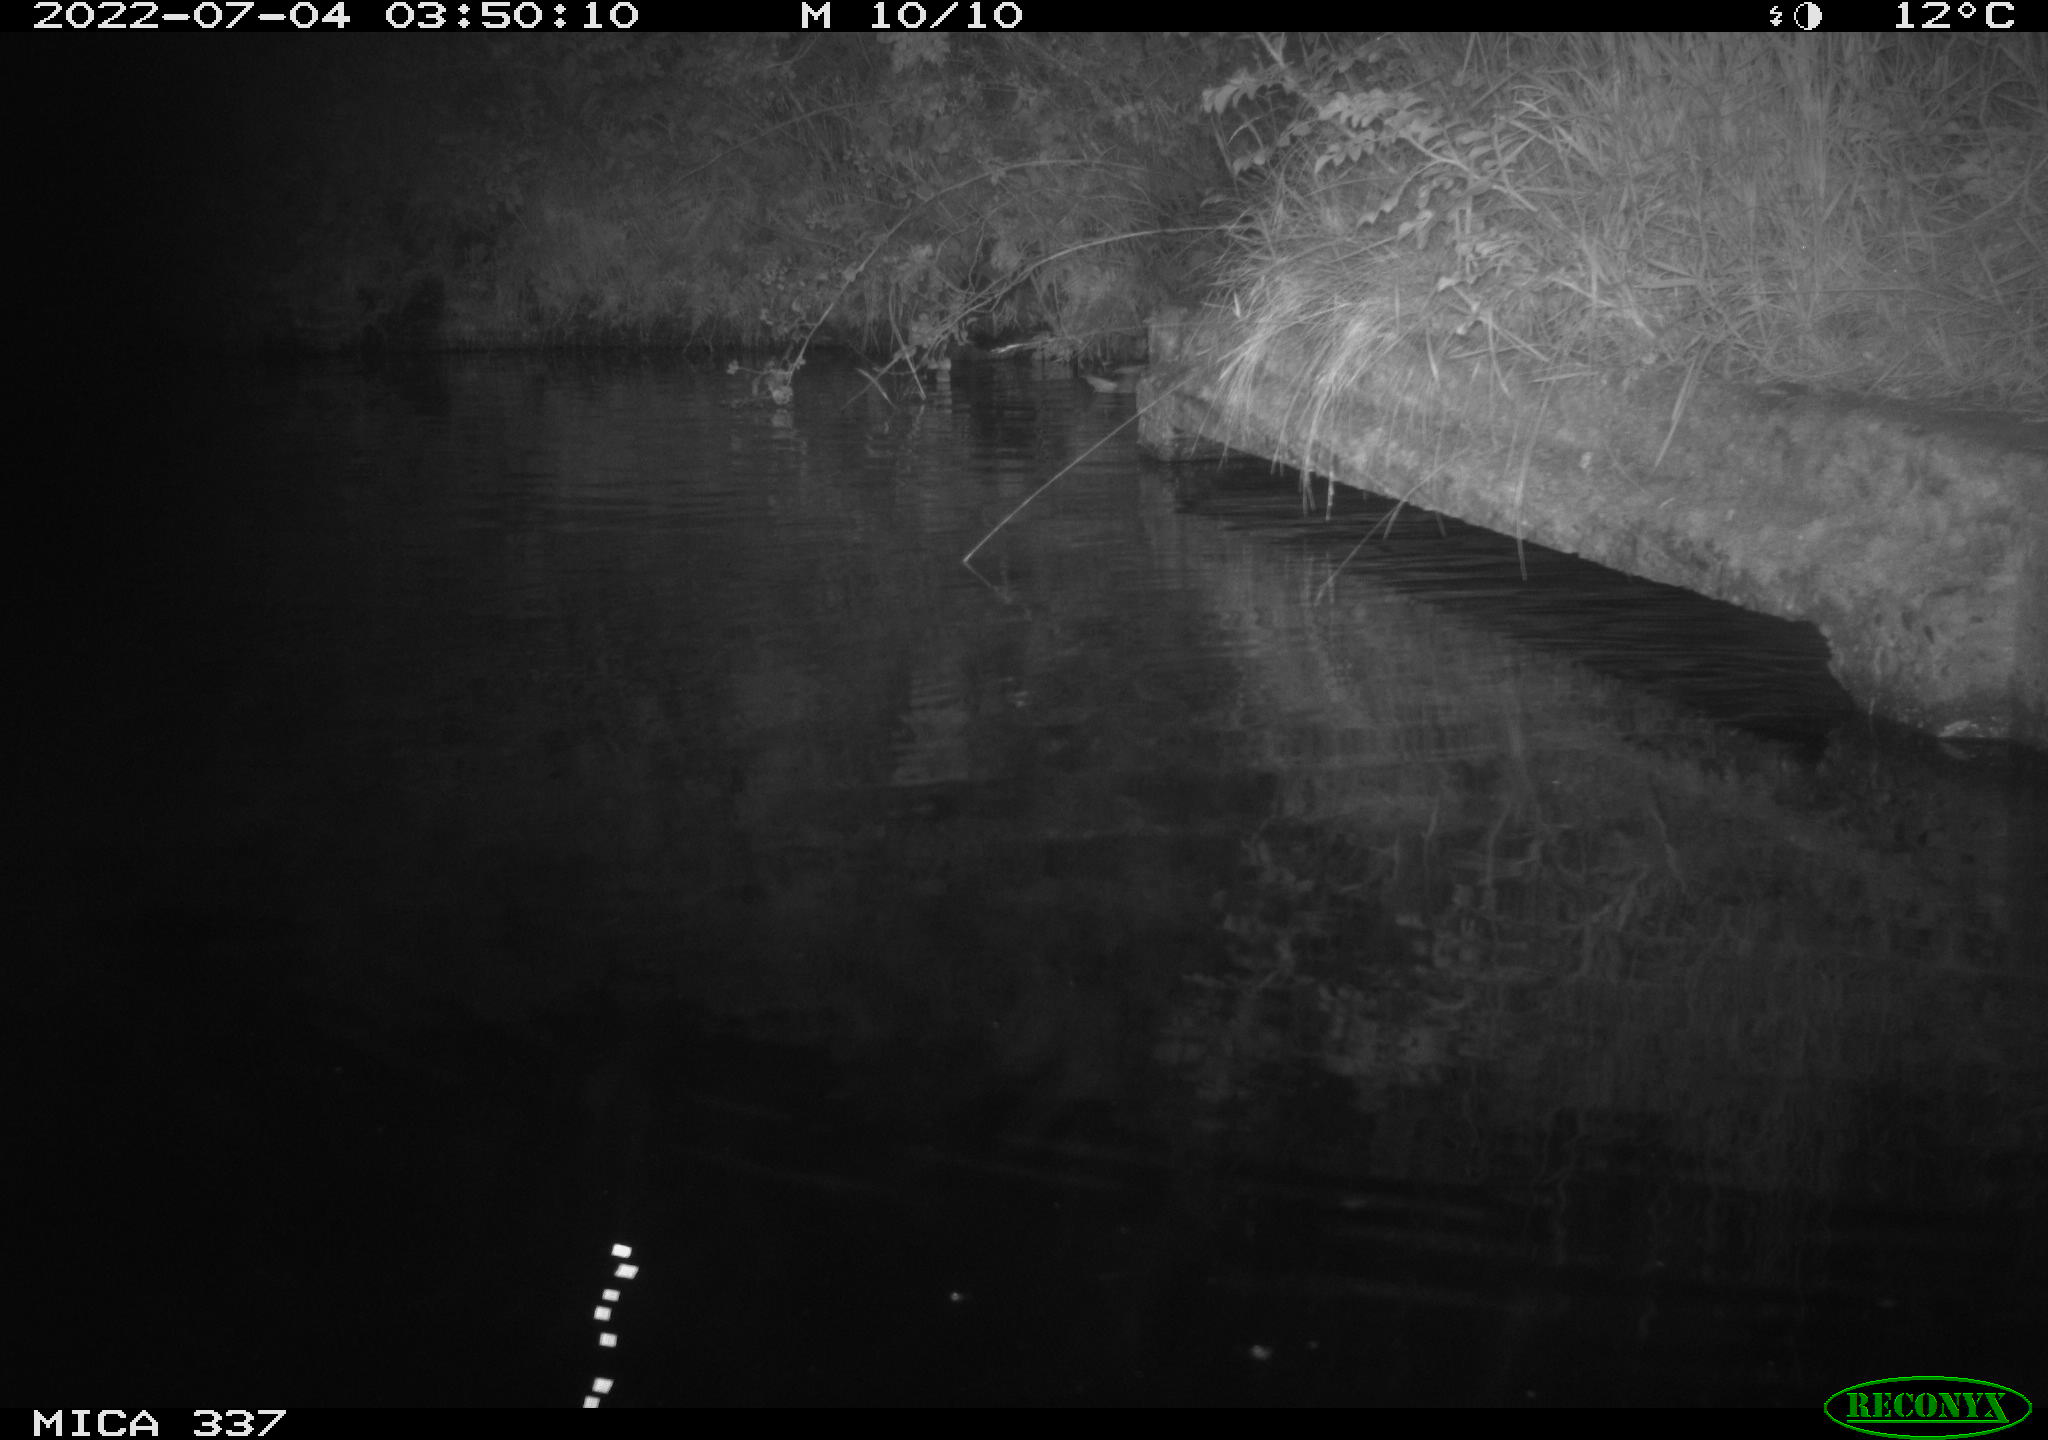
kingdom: Animalia
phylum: Chordata
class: Aves
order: Anseriformes
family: Anatidae
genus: Anas
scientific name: Anas platyrhynchos
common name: Mallard
